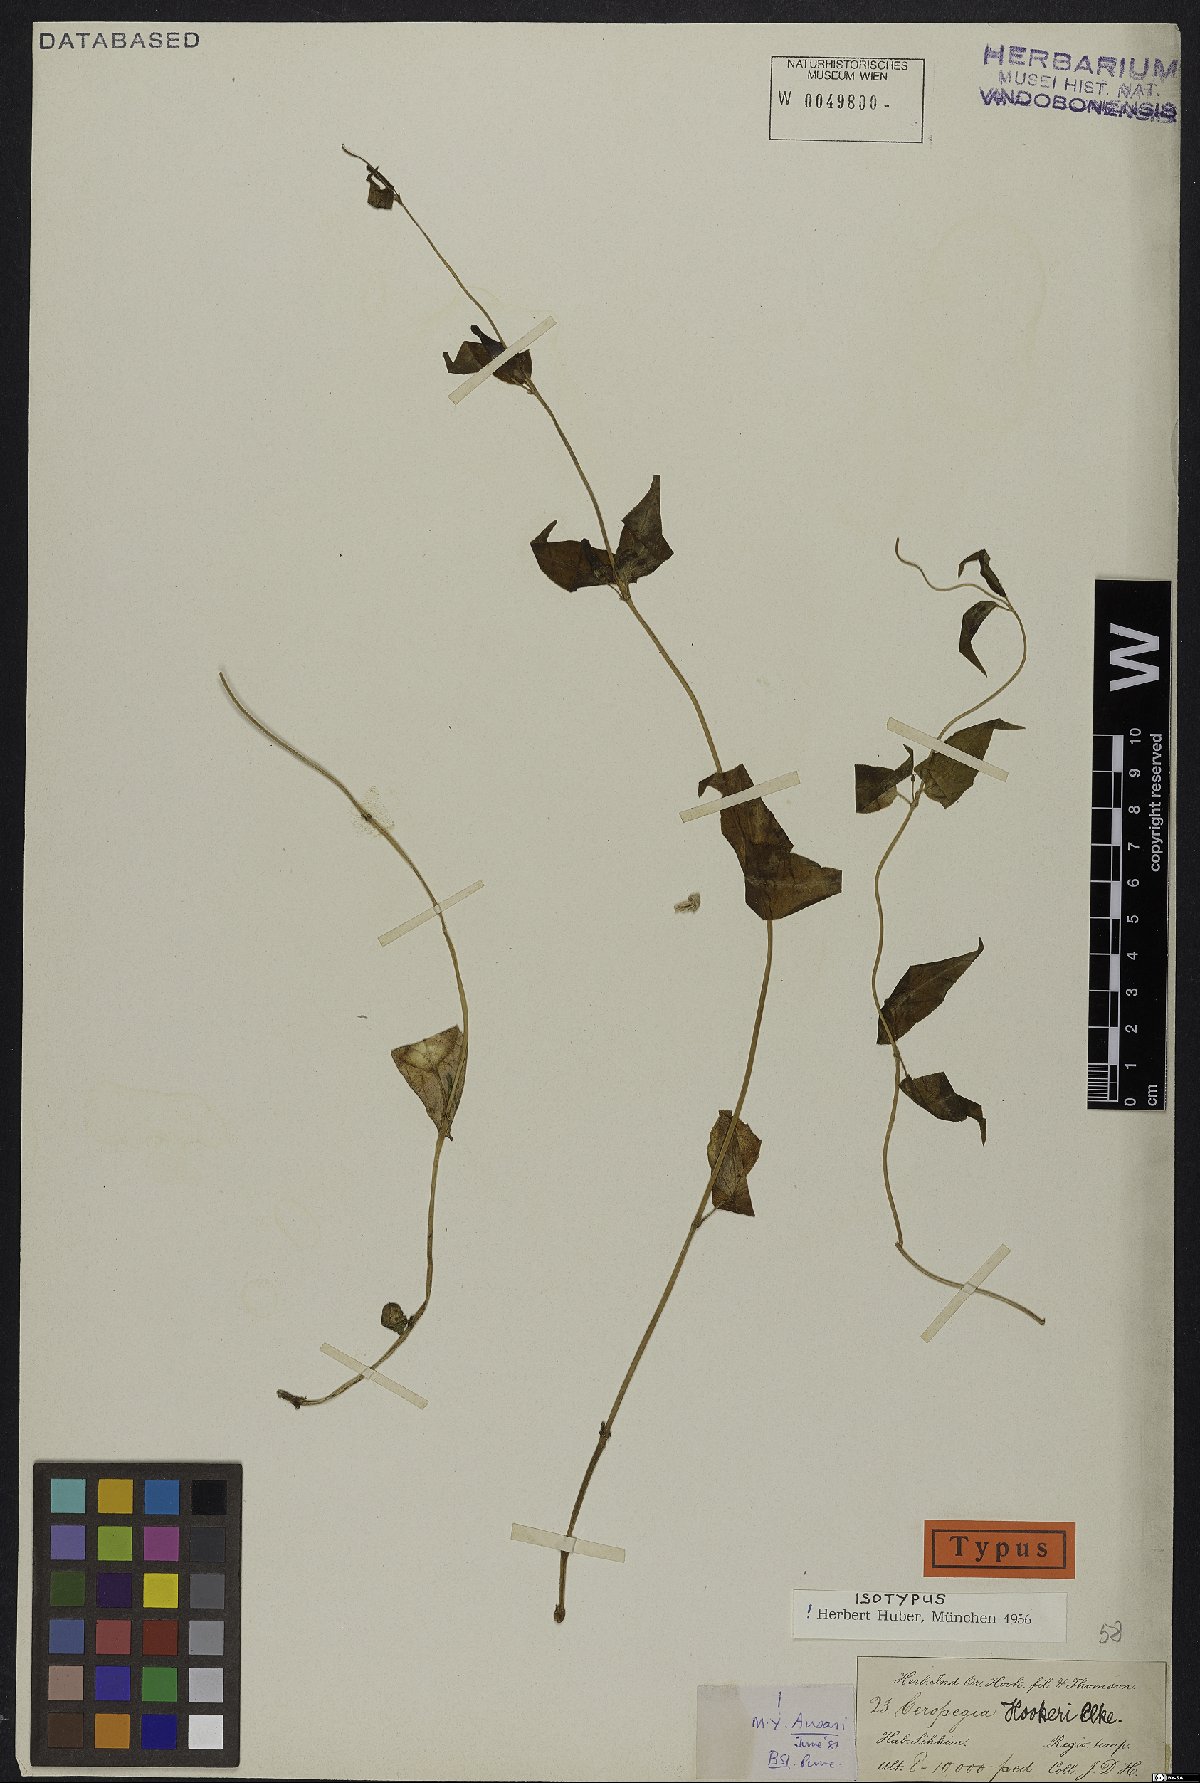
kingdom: Plantae
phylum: Tracheophyta
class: Magnoliopsida
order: Gentianales
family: Apocynaceae
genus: Ceropegia
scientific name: Ceropegia hookeri
